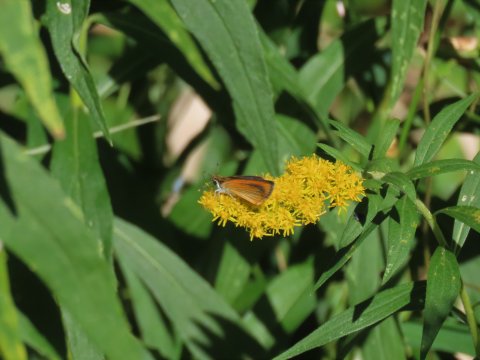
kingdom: Animalia
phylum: Arthropoda
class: Insecta
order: Lepidoptera
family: Hesperiidae
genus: Ancyloxypha
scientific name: Ancyloxypha numitor
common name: Least Skipper
